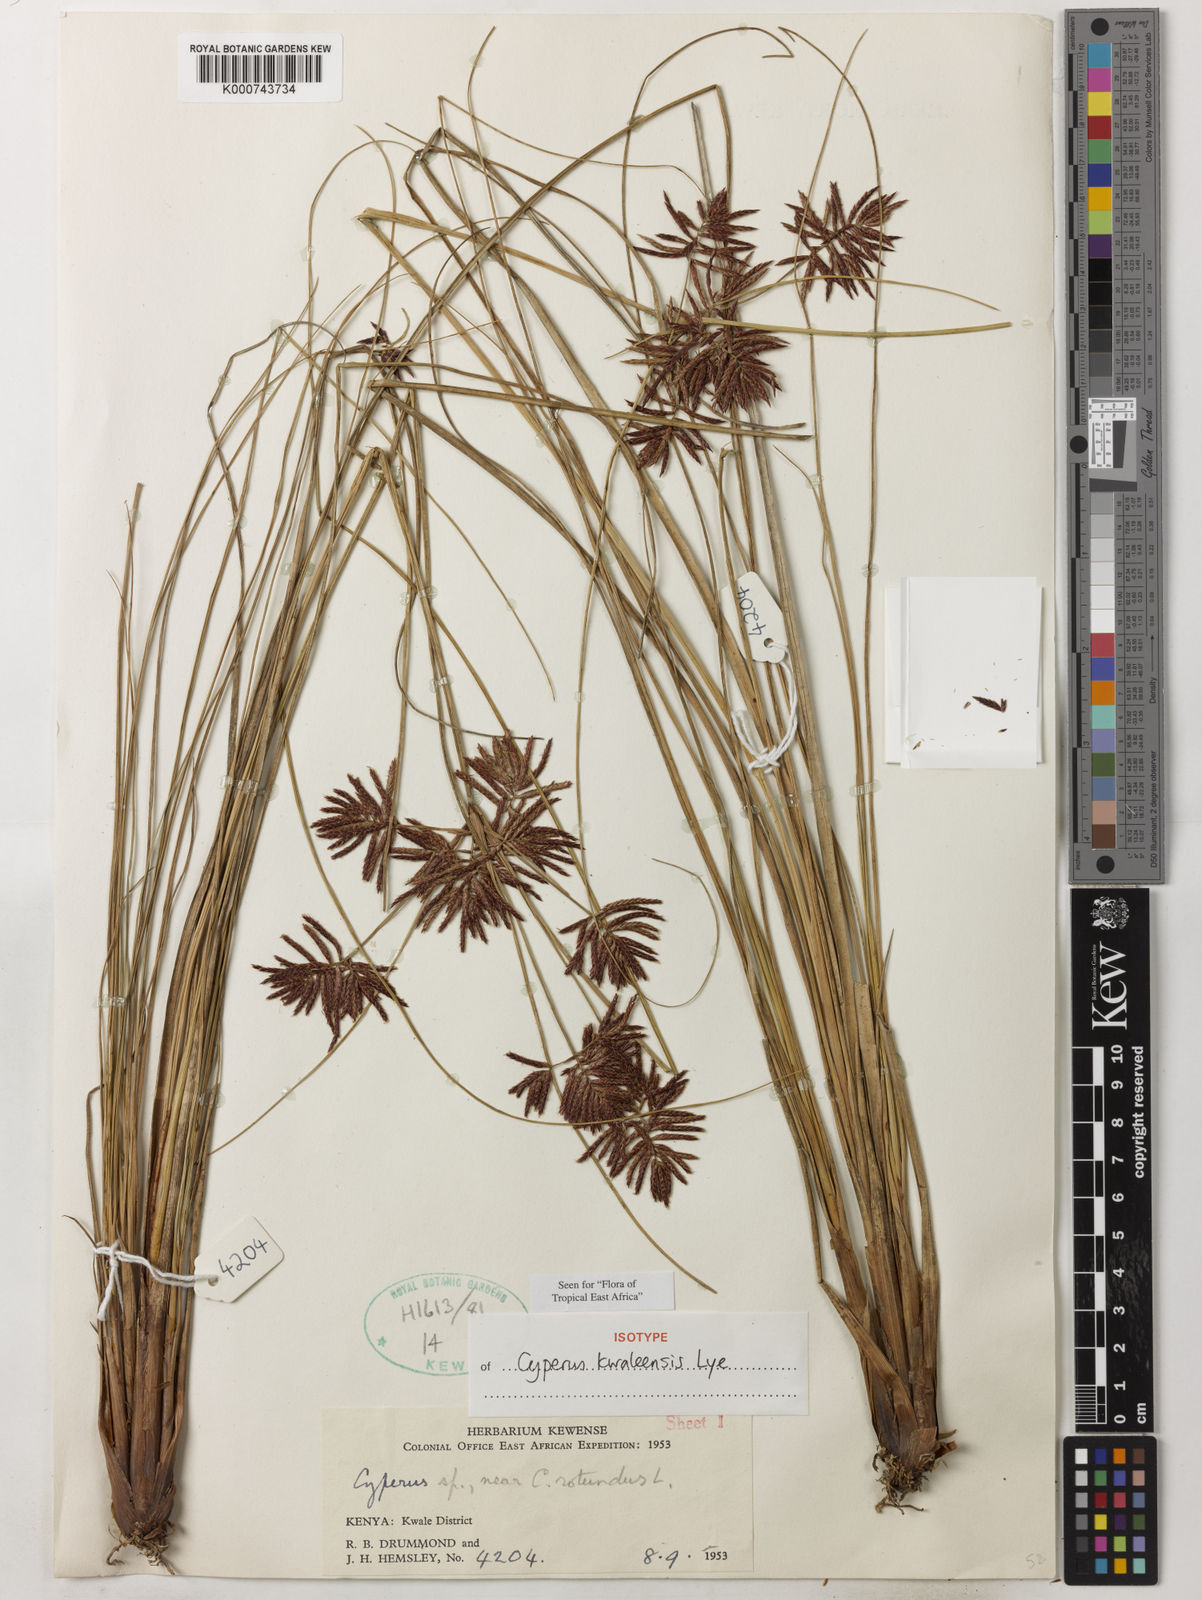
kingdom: Plantae
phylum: Tracheophyta
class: Liliopsida
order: Poales
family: Cyperaceae
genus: Cyperus
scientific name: Cyperus kwaleensis
